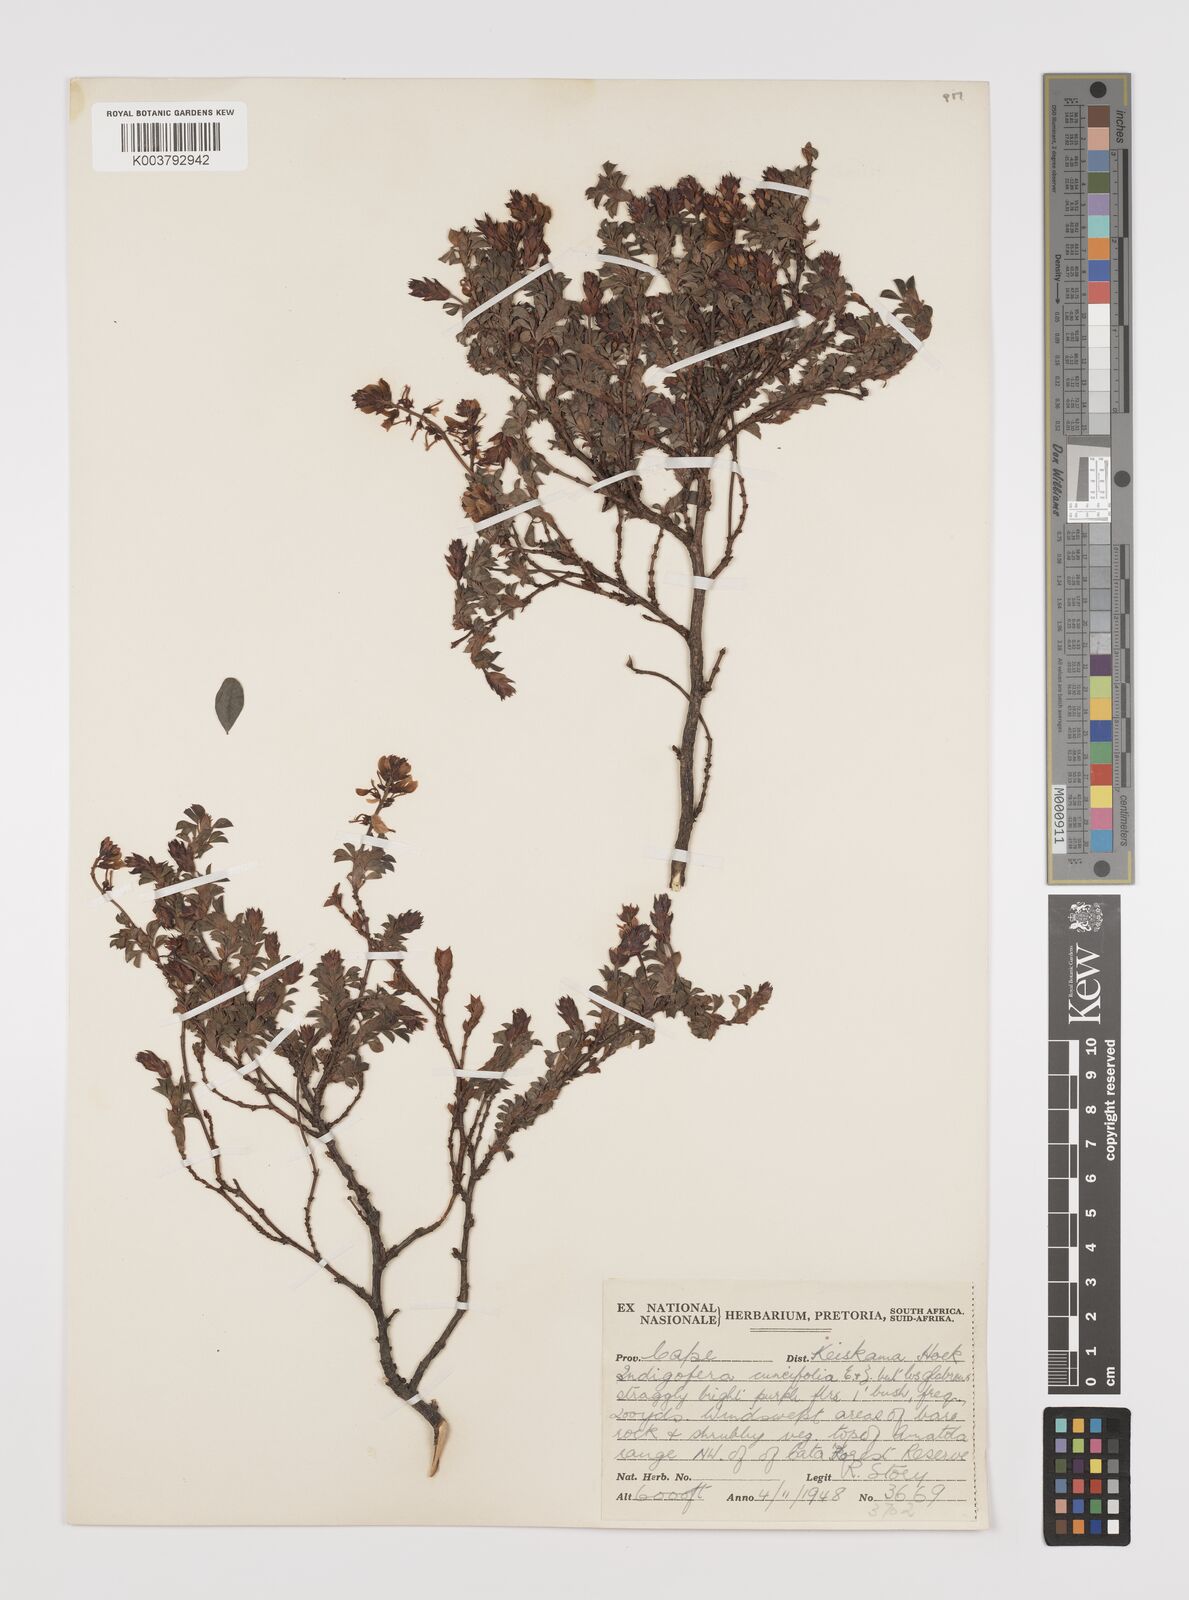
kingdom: Plantae
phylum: Tracheophyta
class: Magnoliopsida
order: Fabales
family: Fabaceae
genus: Indigofera
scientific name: Indigofera elandsbergensis
